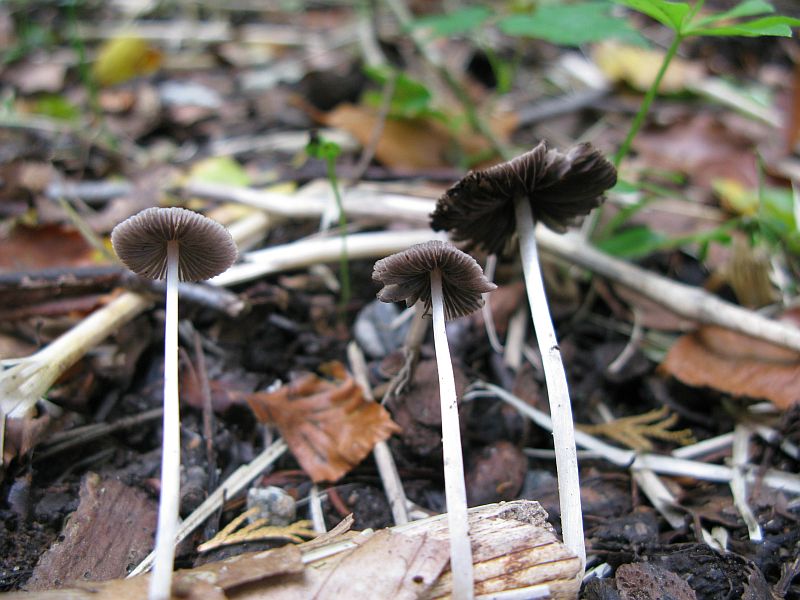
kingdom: Fungi
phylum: Basidiomycota
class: Agaricomycetes
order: Agaricales
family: Psathyrellaceae
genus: Psathyrella
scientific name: Psathyrella corrugis
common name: rødægget mørkhat
